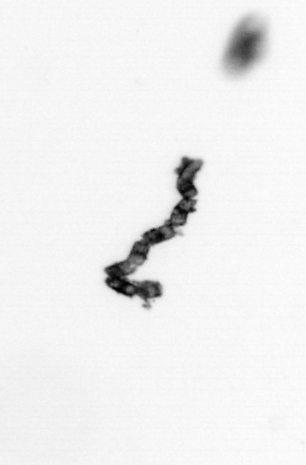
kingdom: Chromista
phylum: Ochrophyta
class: Bacillariophyceae
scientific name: Bacillariophyceae
